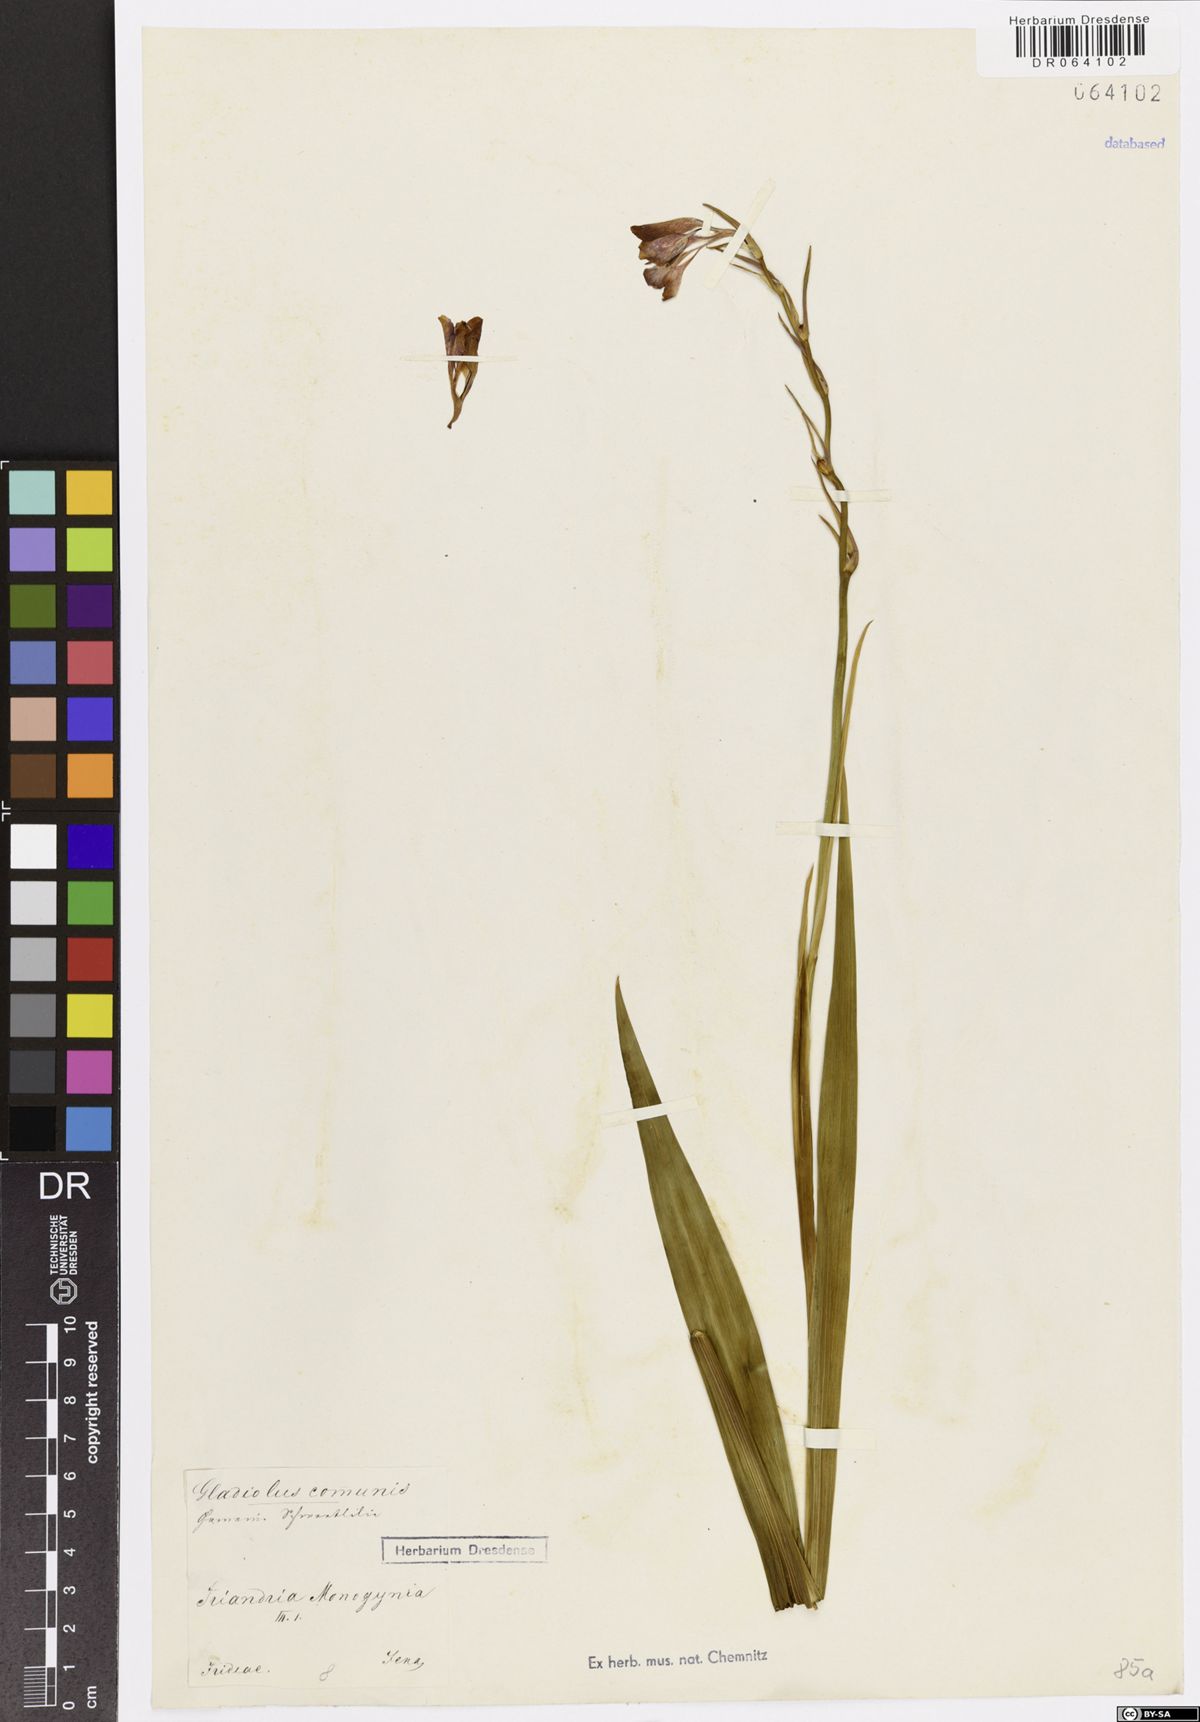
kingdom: Plantae
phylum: Tracheophyta
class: Liliopsida
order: Asparagales
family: Iridaceae
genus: Gladiolus
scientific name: Gladiolus communis
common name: Eastern gladiolus
